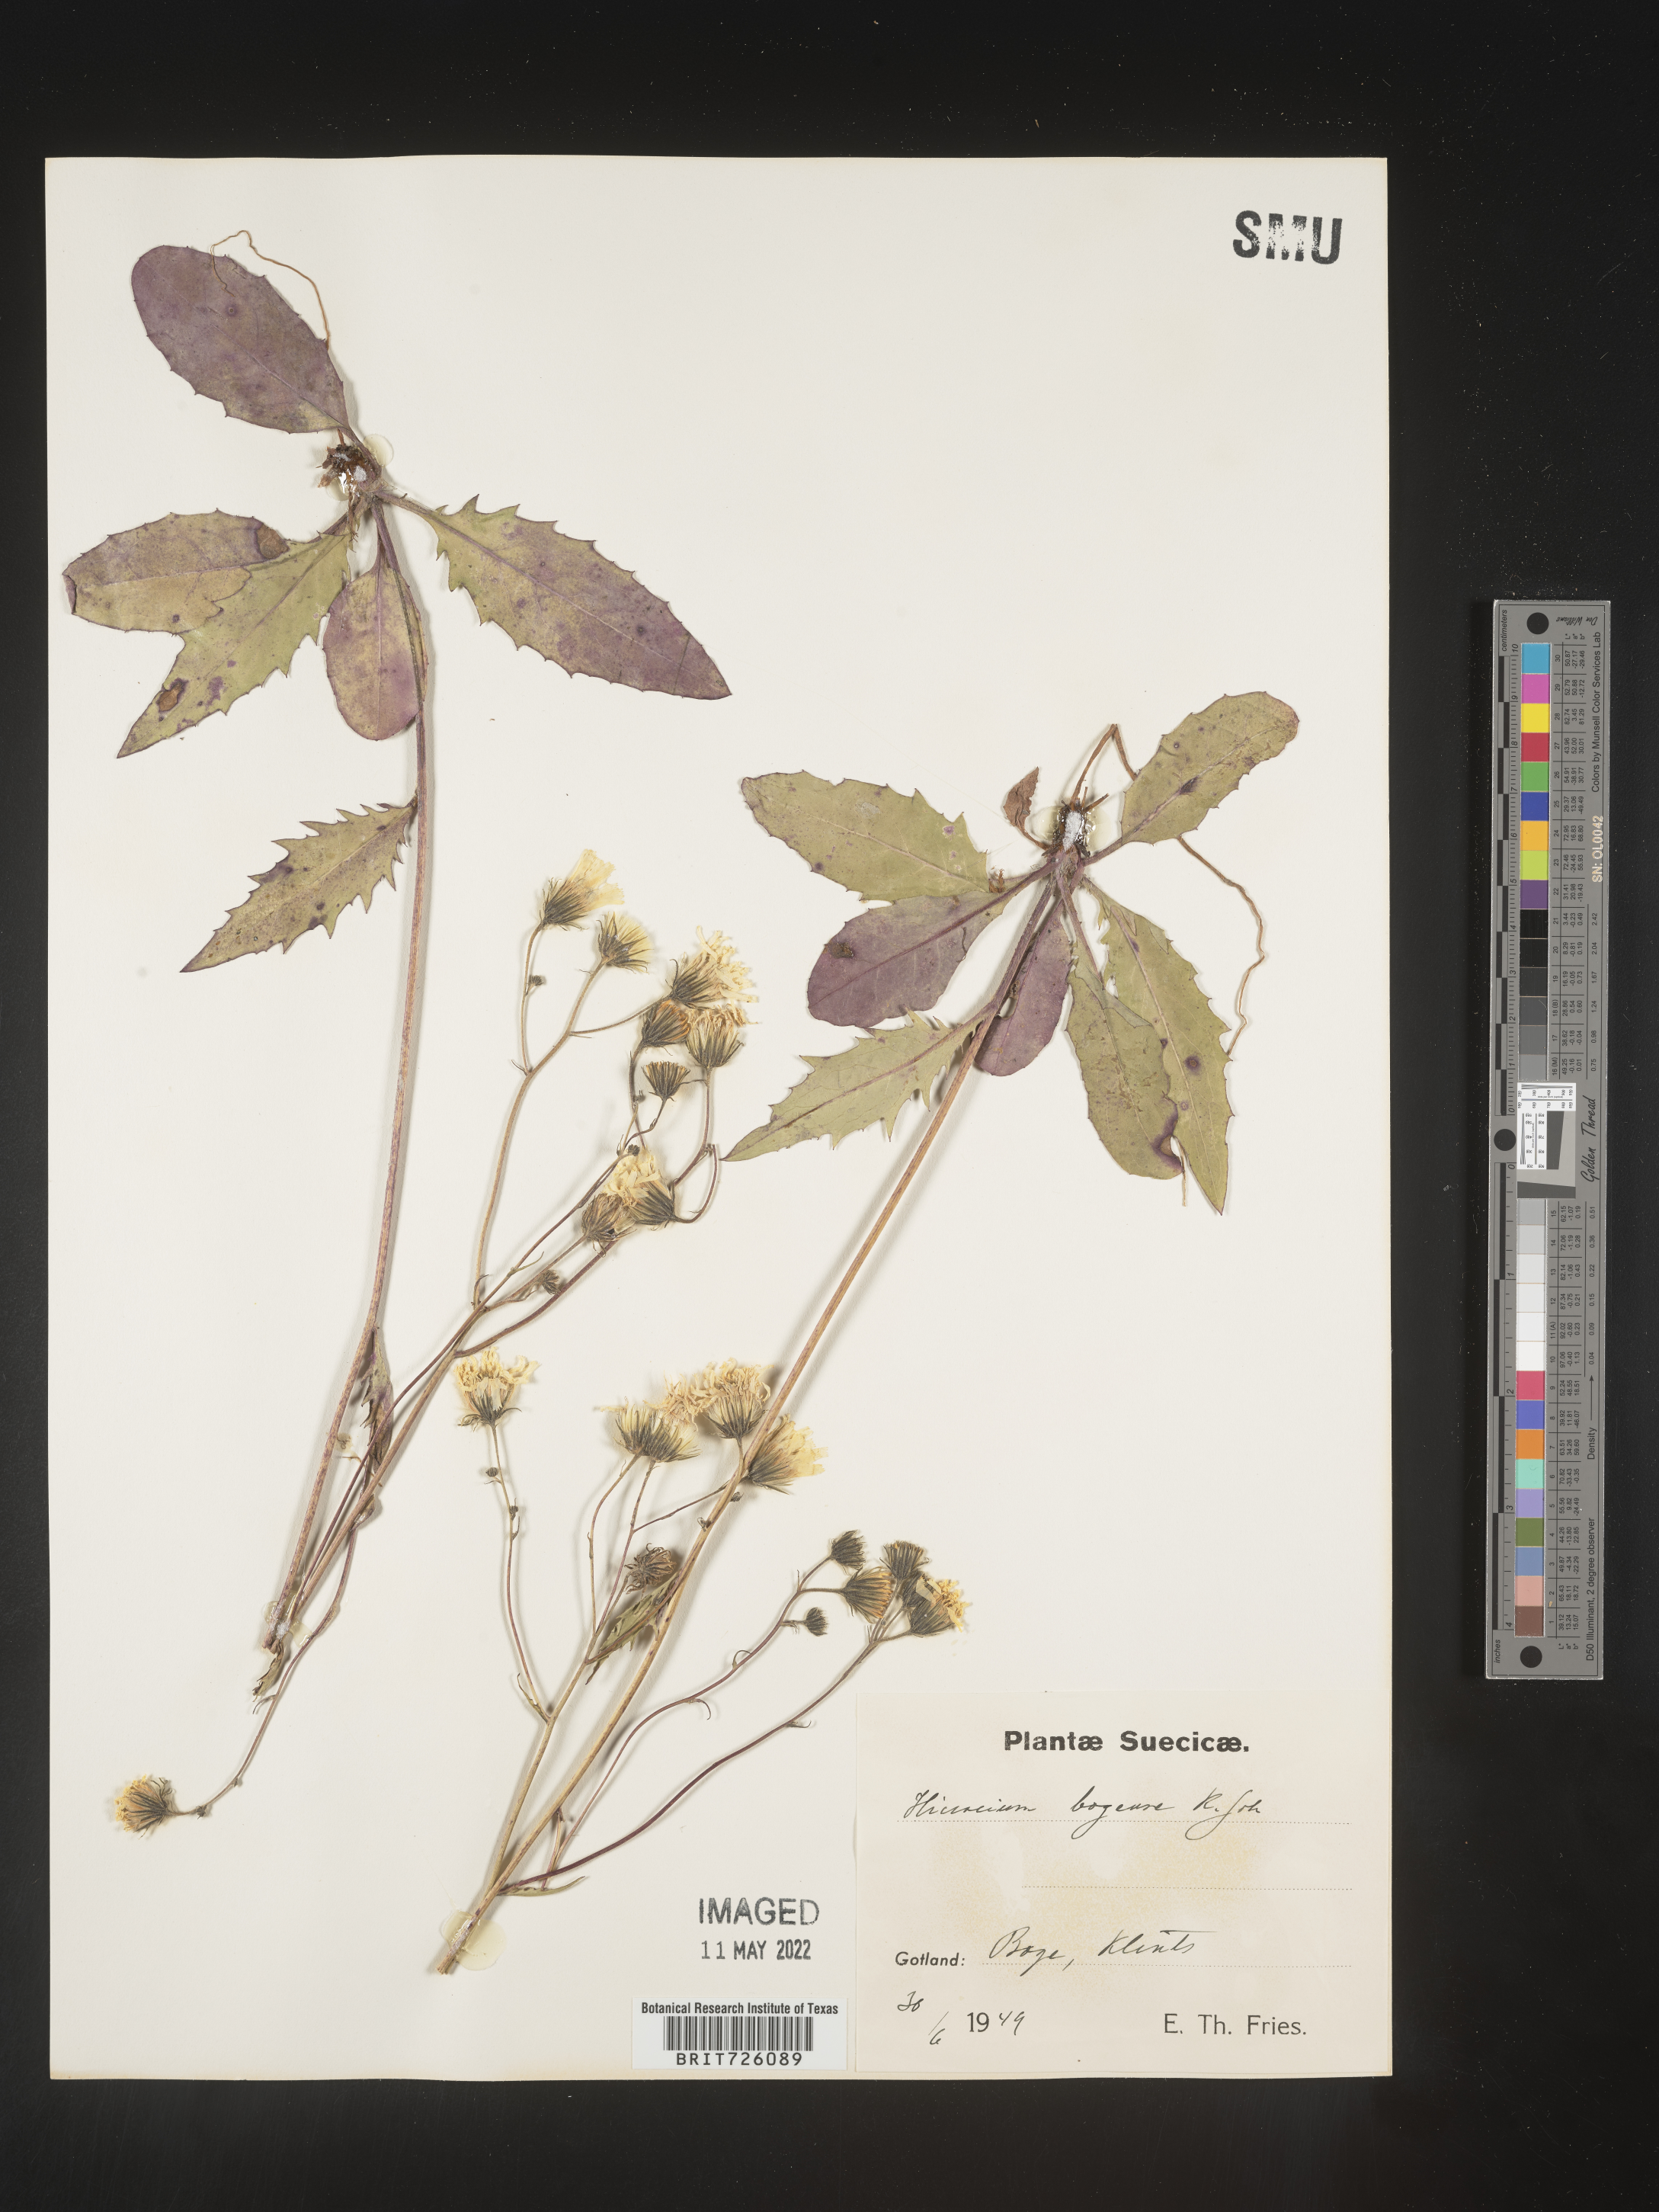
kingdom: Plantae
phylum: Tracheophyta
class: Magnoliopsida
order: Asterales
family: Asteraceae
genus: Hieracium
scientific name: Hieracium
